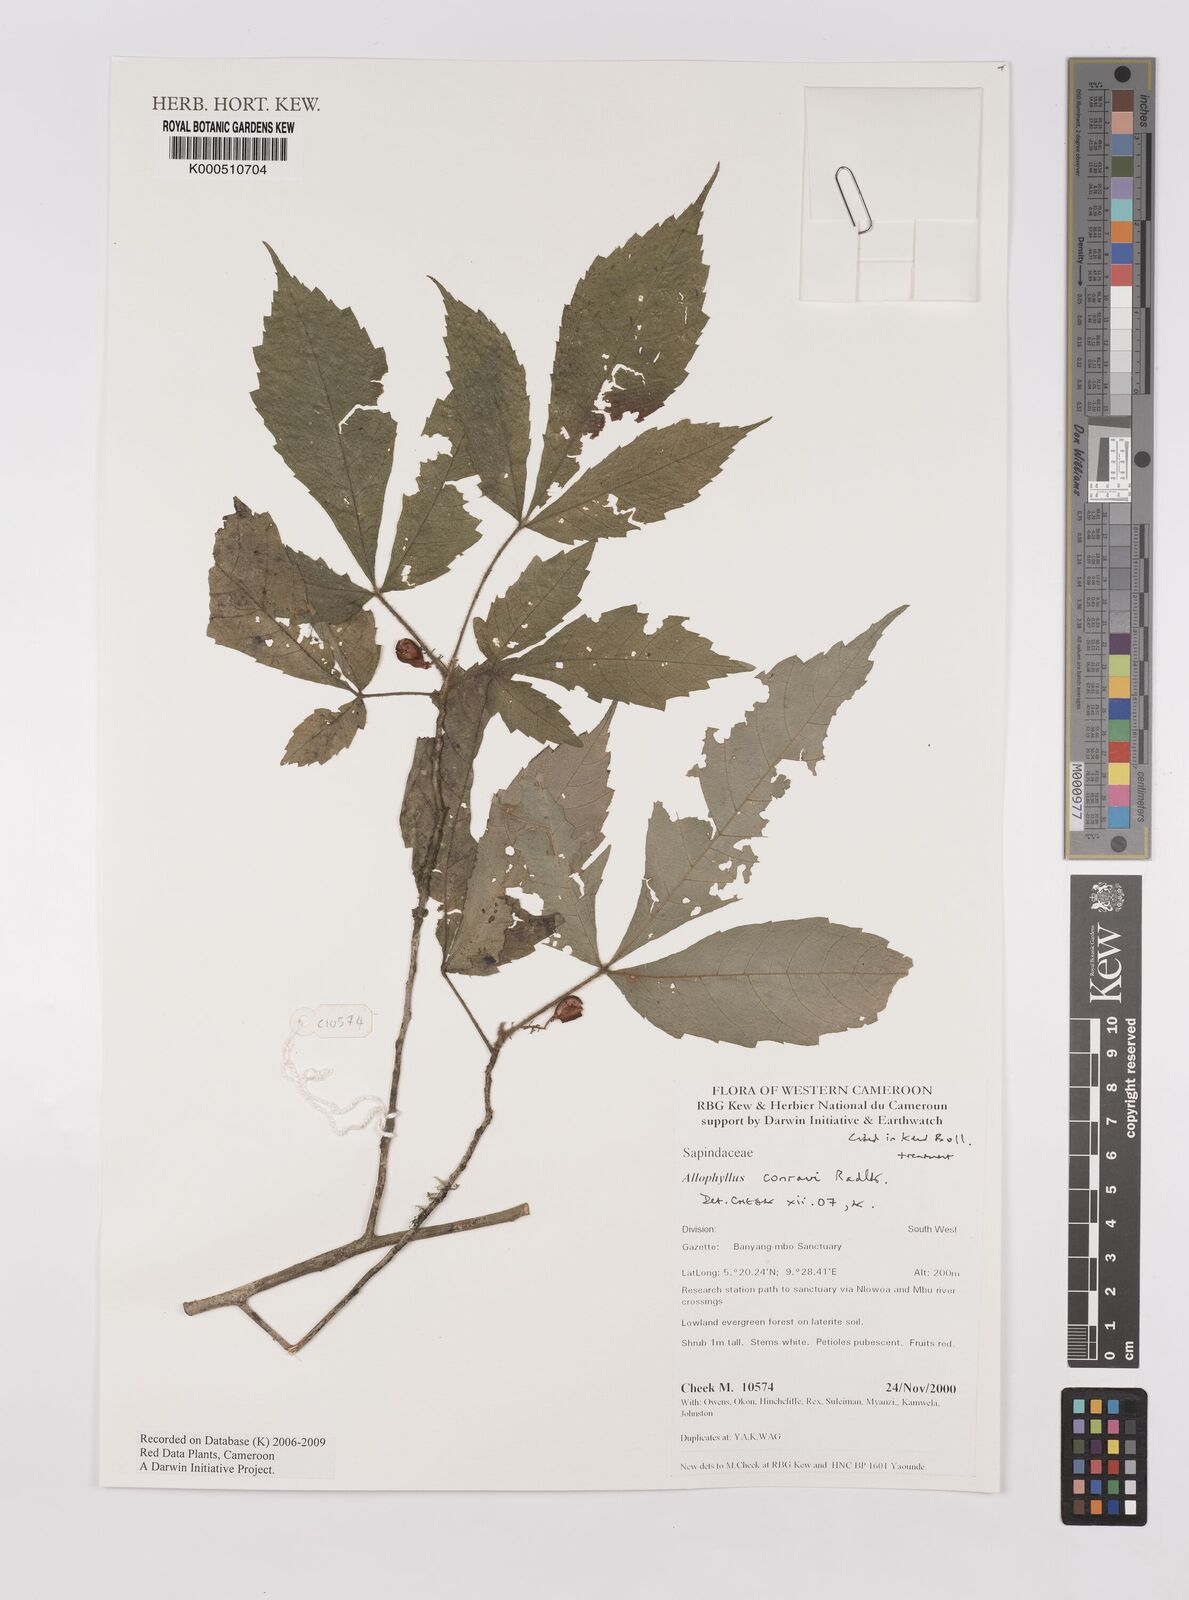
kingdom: Plantae
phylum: Tracheophyta
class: Magnoliopsida
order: Sapindales
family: Sapindaceae
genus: Allophylus
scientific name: Allophylus conraui
